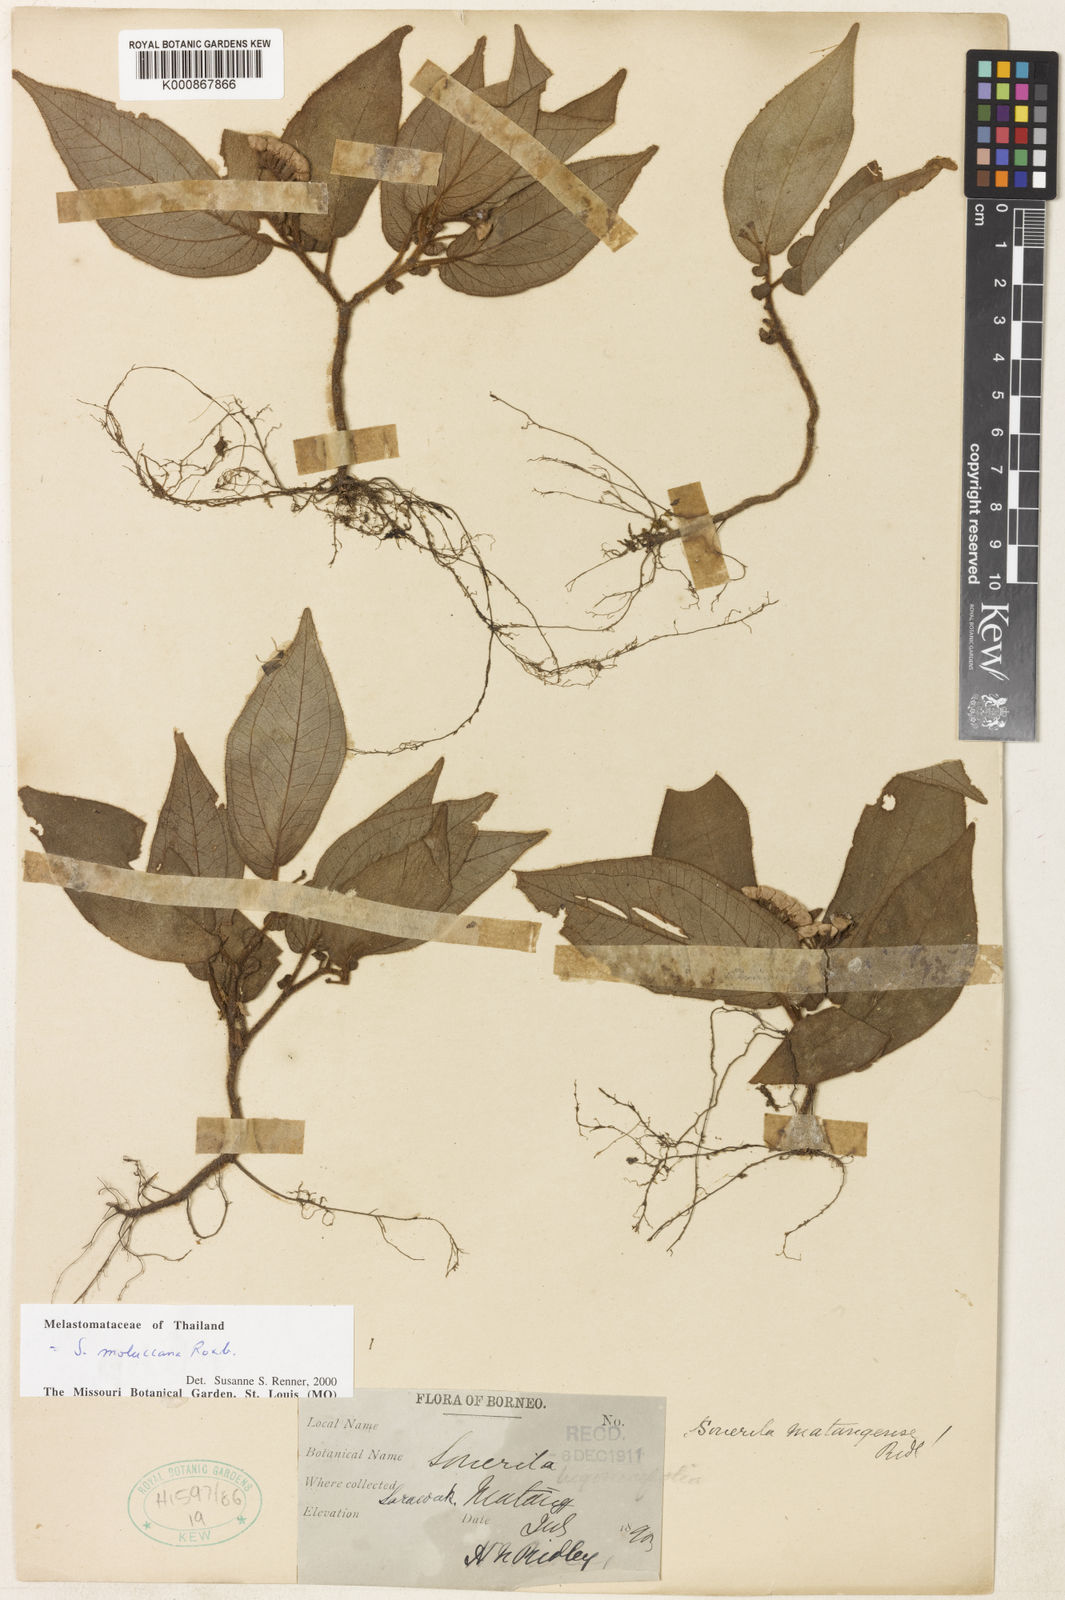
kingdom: Plantae
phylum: Tracheophyta
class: Magnoliopsida
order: Myrtales
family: Melastomataceae
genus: Sonerila
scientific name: Sonerila moluccana
